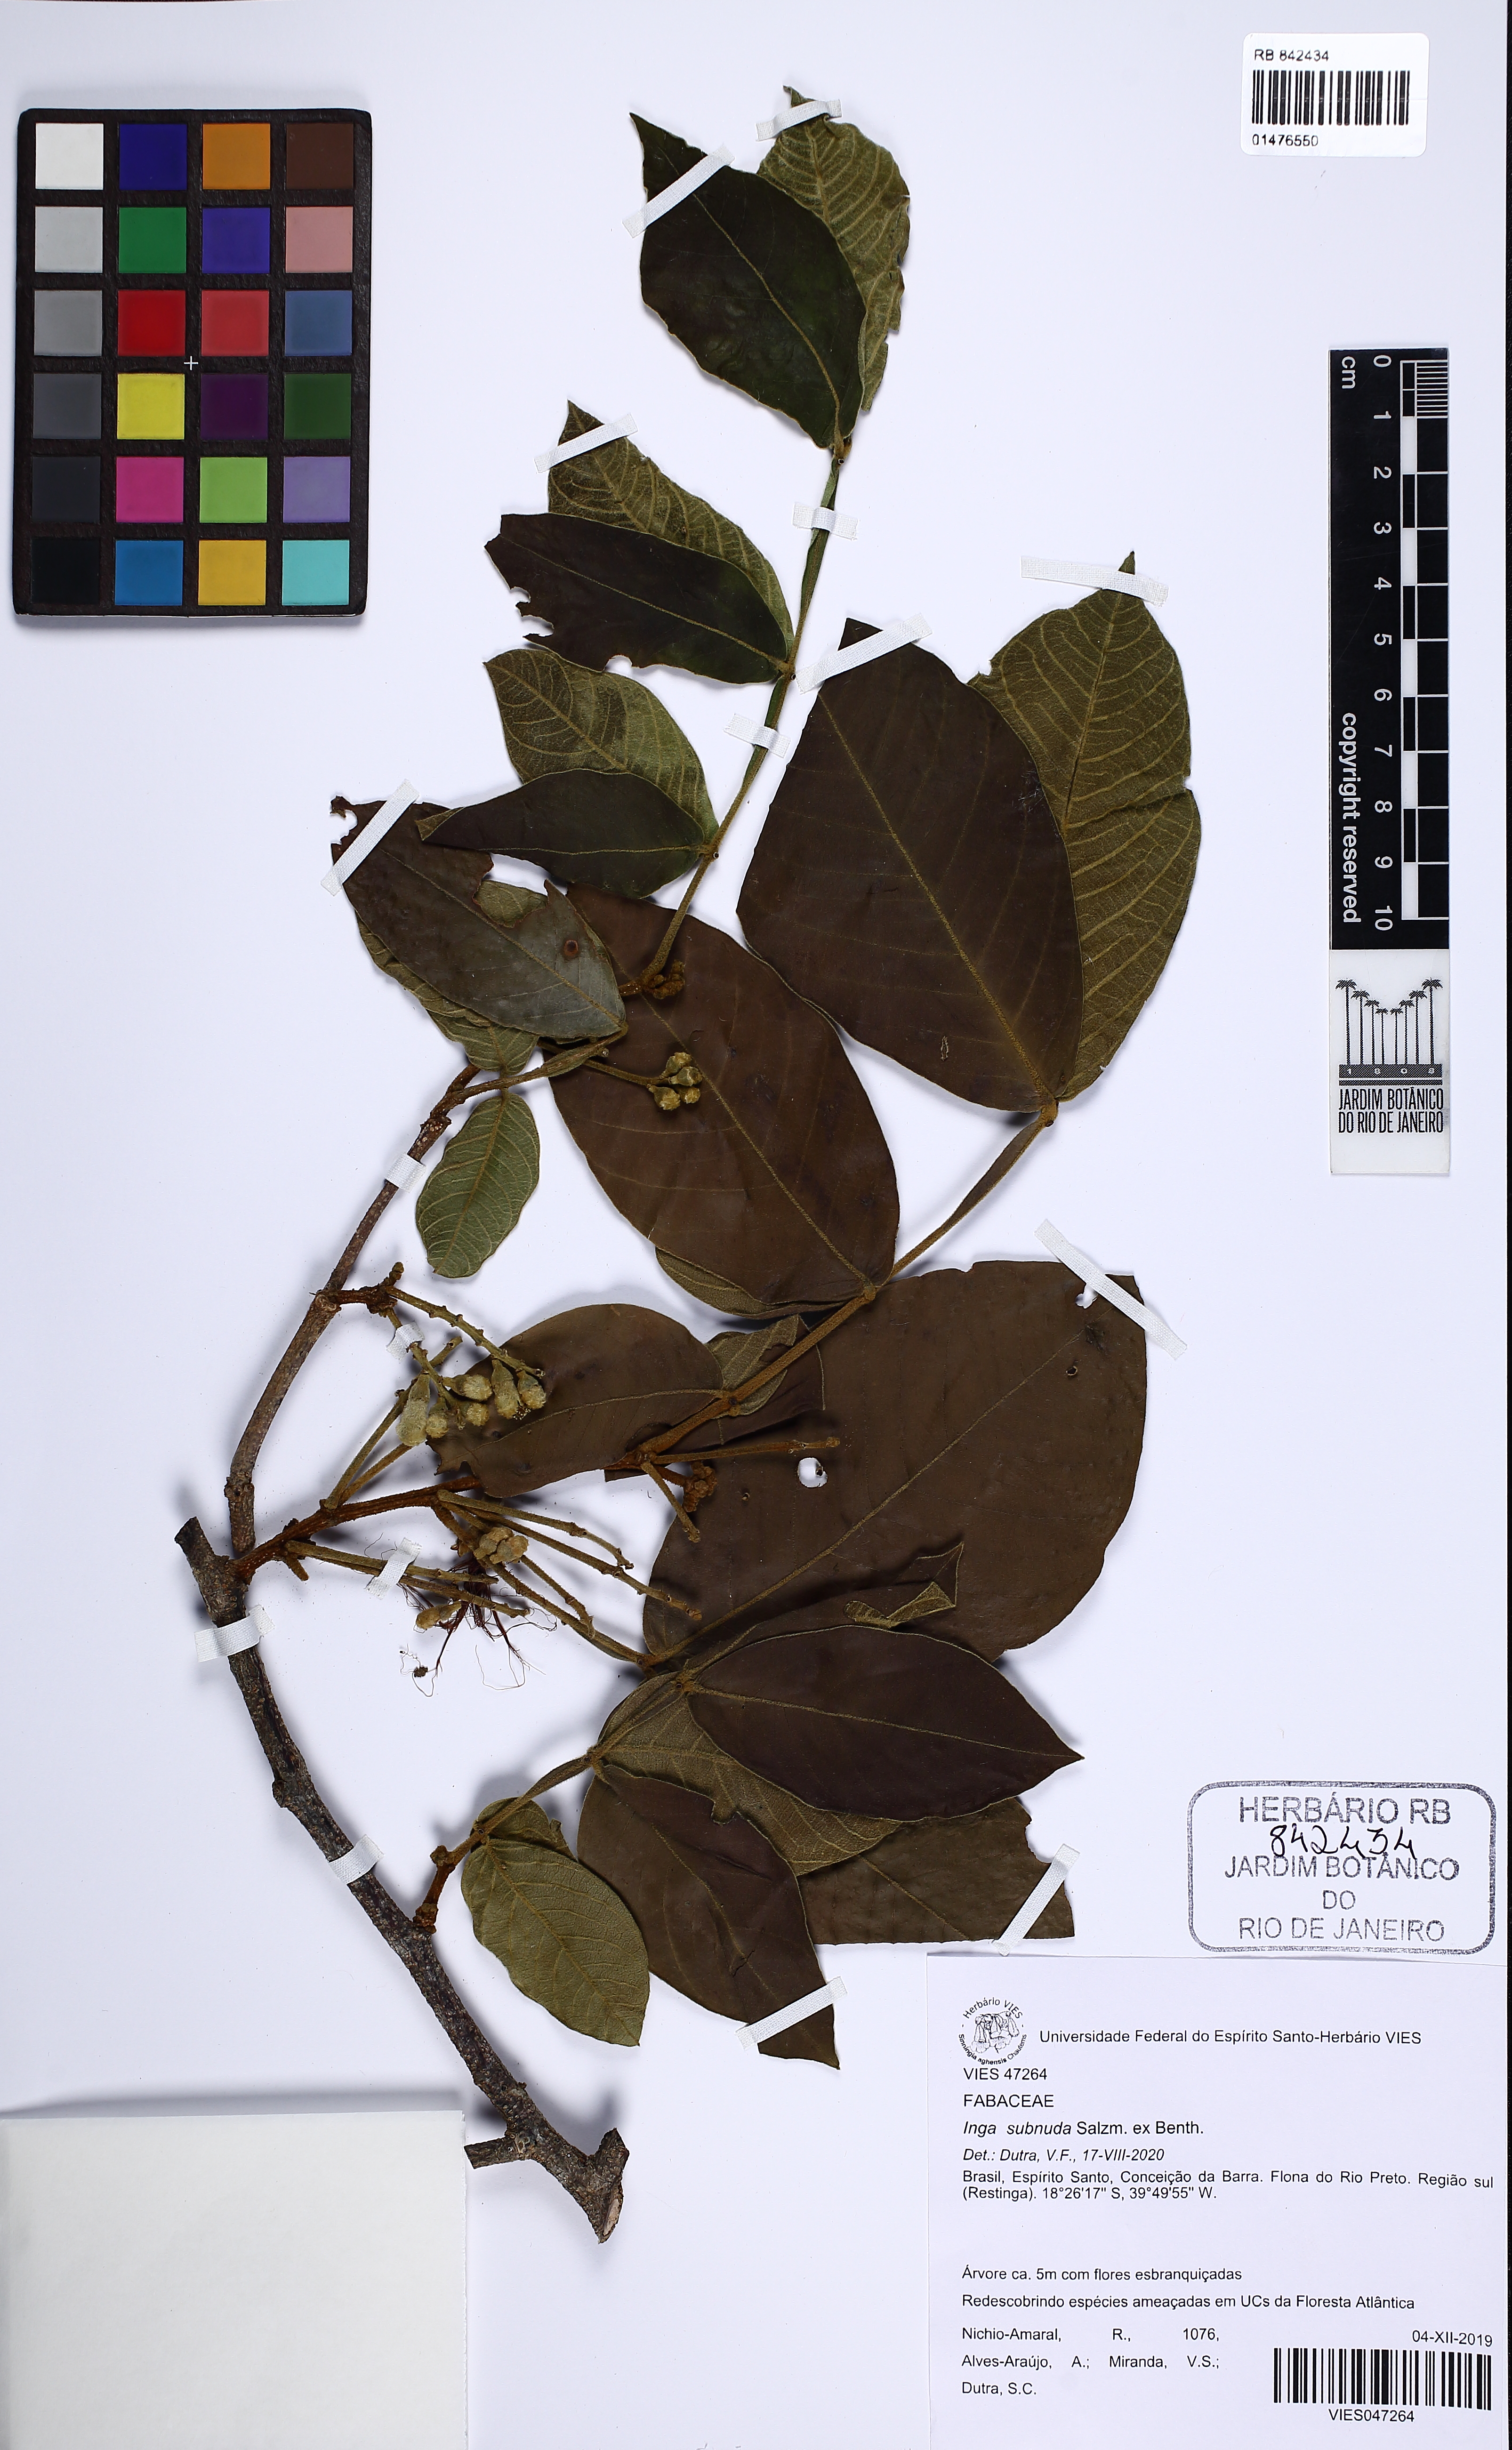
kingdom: Plantae
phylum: Tracheophyta
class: Magnoliopsida
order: Fabales
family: Fabaceae
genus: Inga
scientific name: Inga subnuda
